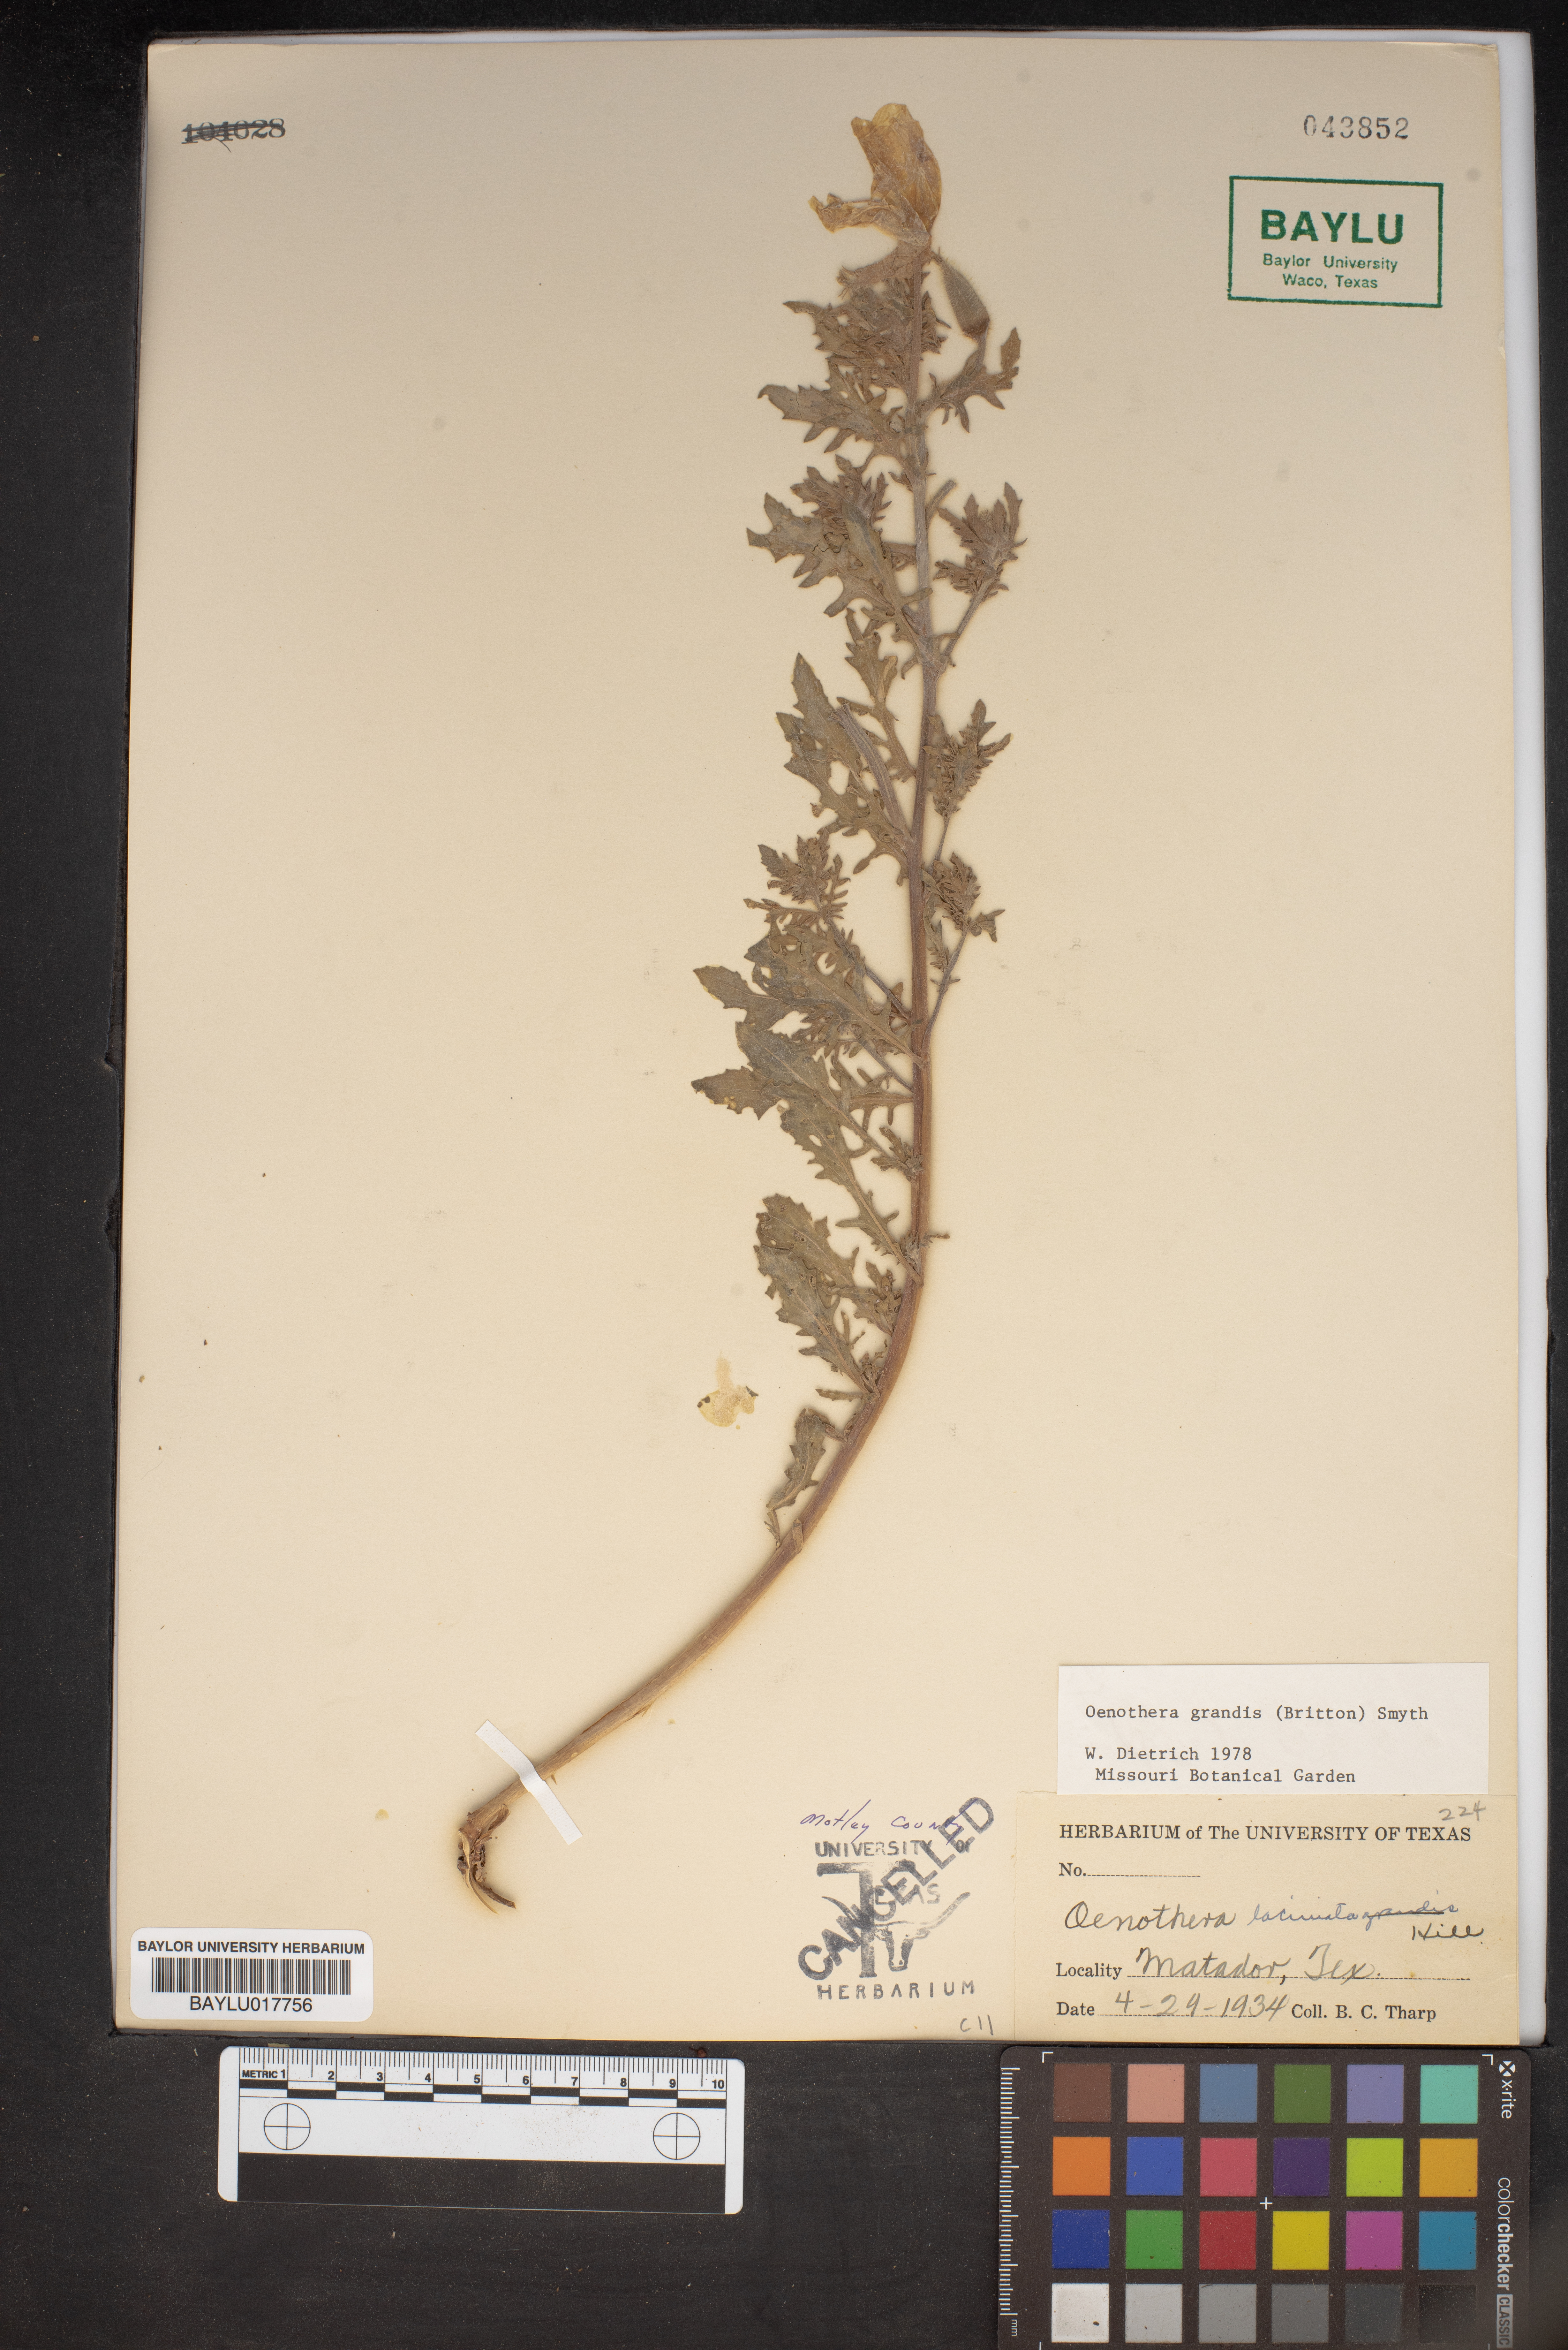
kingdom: Plantae
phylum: Tracheophyta
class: Magnoliopsida
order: Myrtales
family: Onagraceae
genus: Oenothera
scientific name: Oenothera grandis
